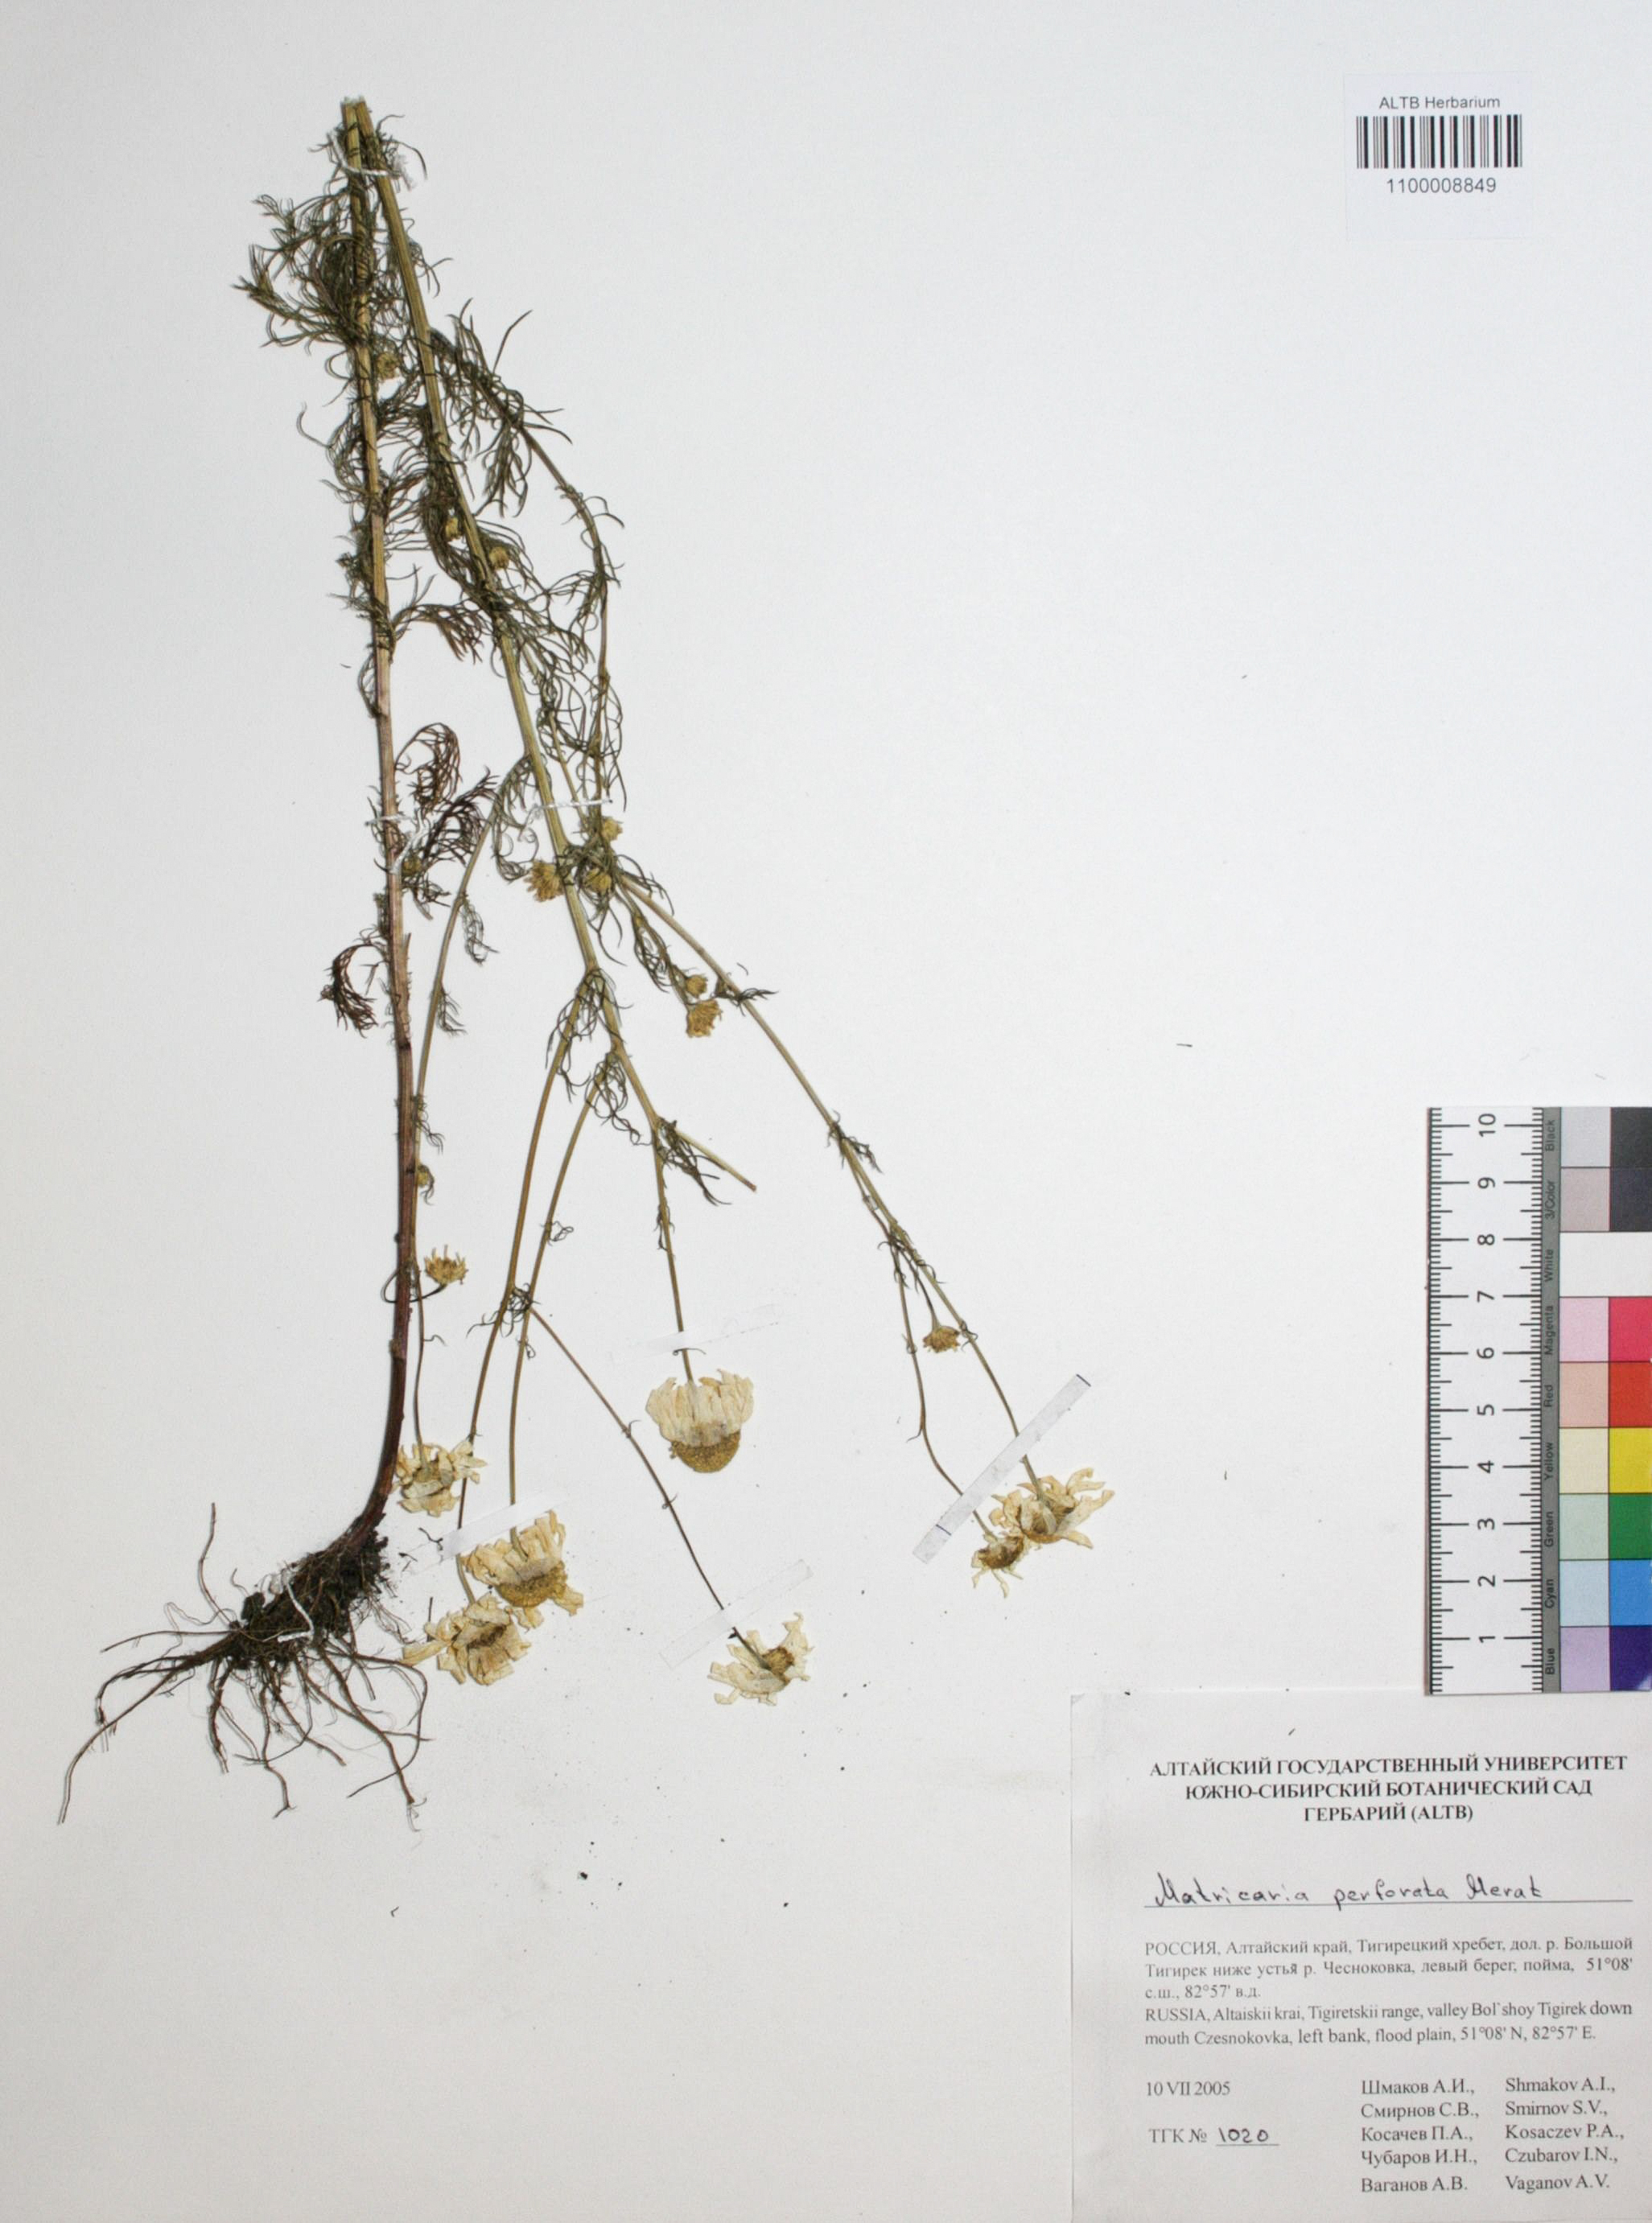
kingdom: Plantae
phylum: Tracheophyta
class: Magnoliopsida
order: Asterales
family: Asteraceae
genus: Tripleurospermum
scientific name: Tripleurospermum inodorum
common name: Scentless mayweed
